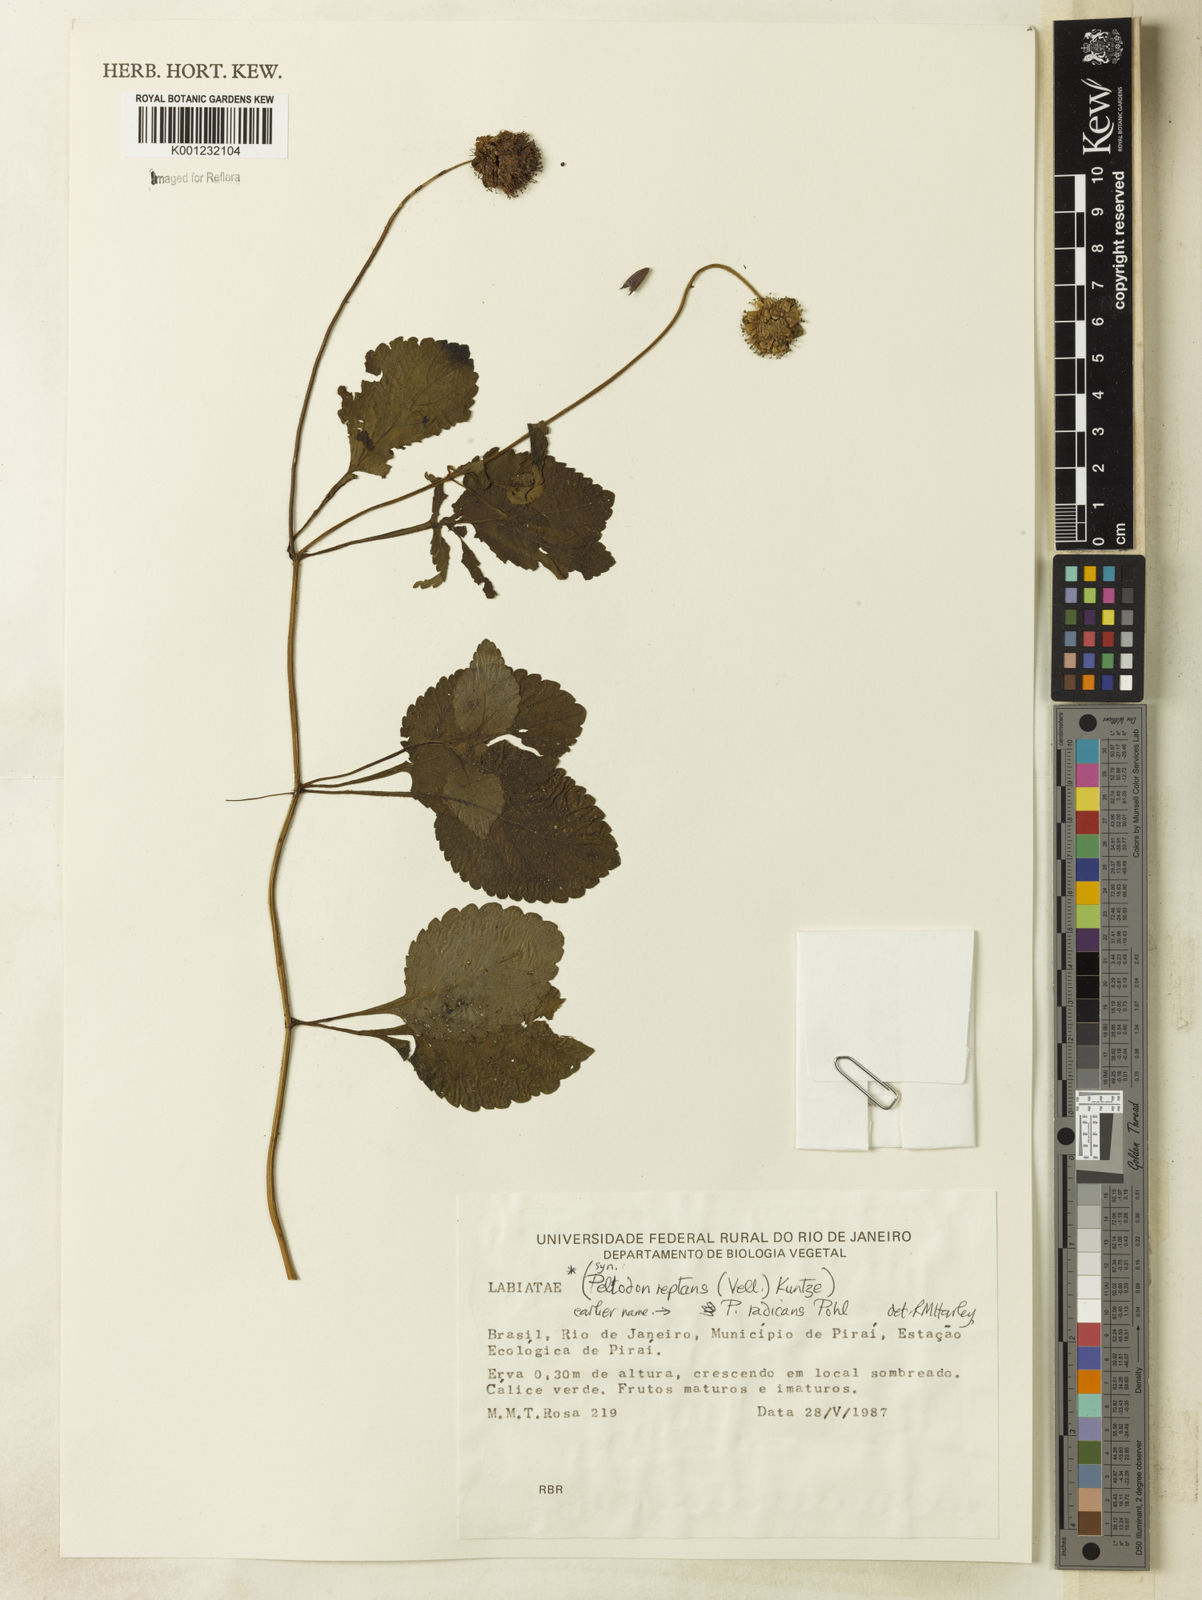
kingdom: Plantae
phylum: Tracheophyta
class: Magnoliopsida
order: Lamiales
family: Lamiaceae
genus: Hyptis
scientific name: Hyptis radicans
